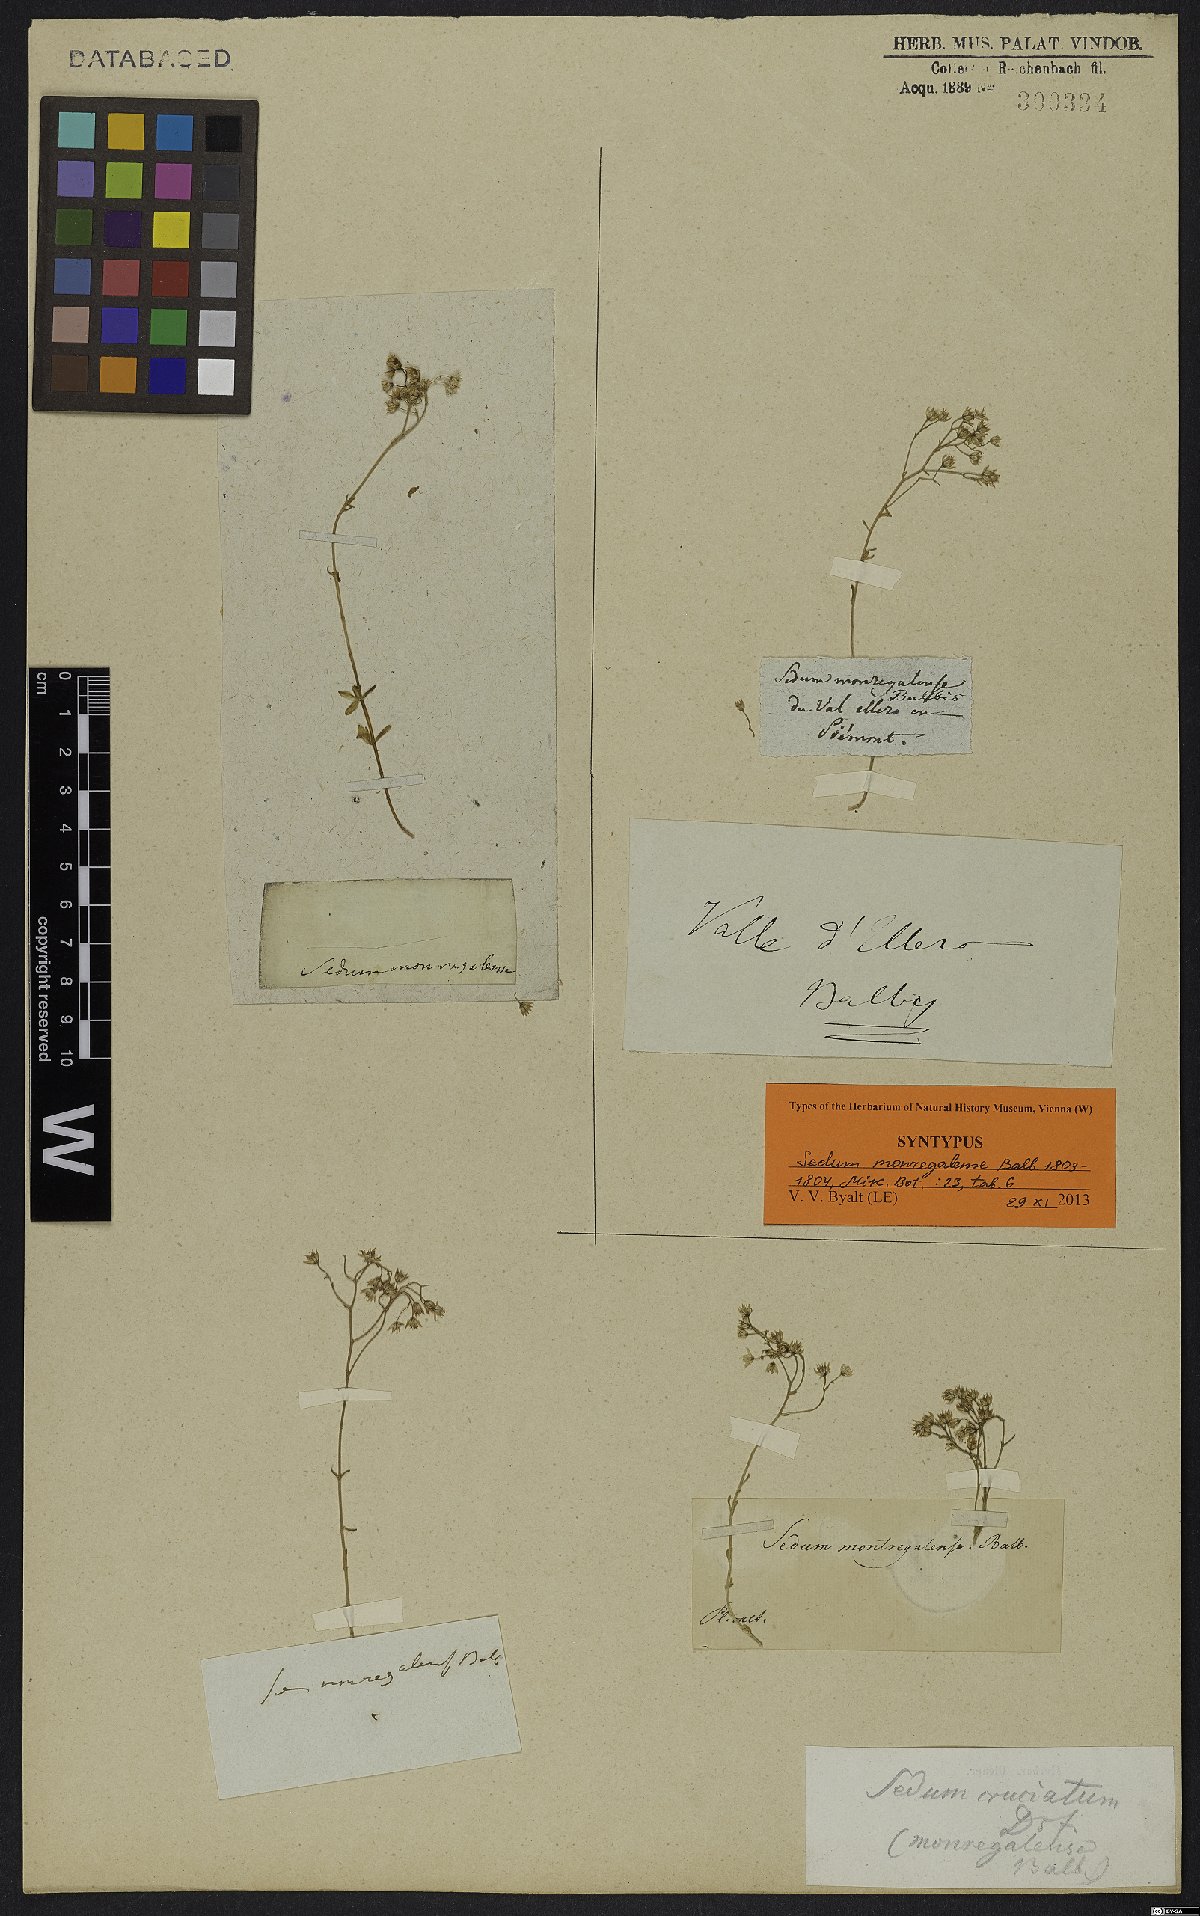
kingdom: Plantae
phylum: Tracheophyta
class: Magnoliopsida
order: Saxifragales
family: Crassulaceae
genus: Sedum
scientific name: Sedum monregalense
